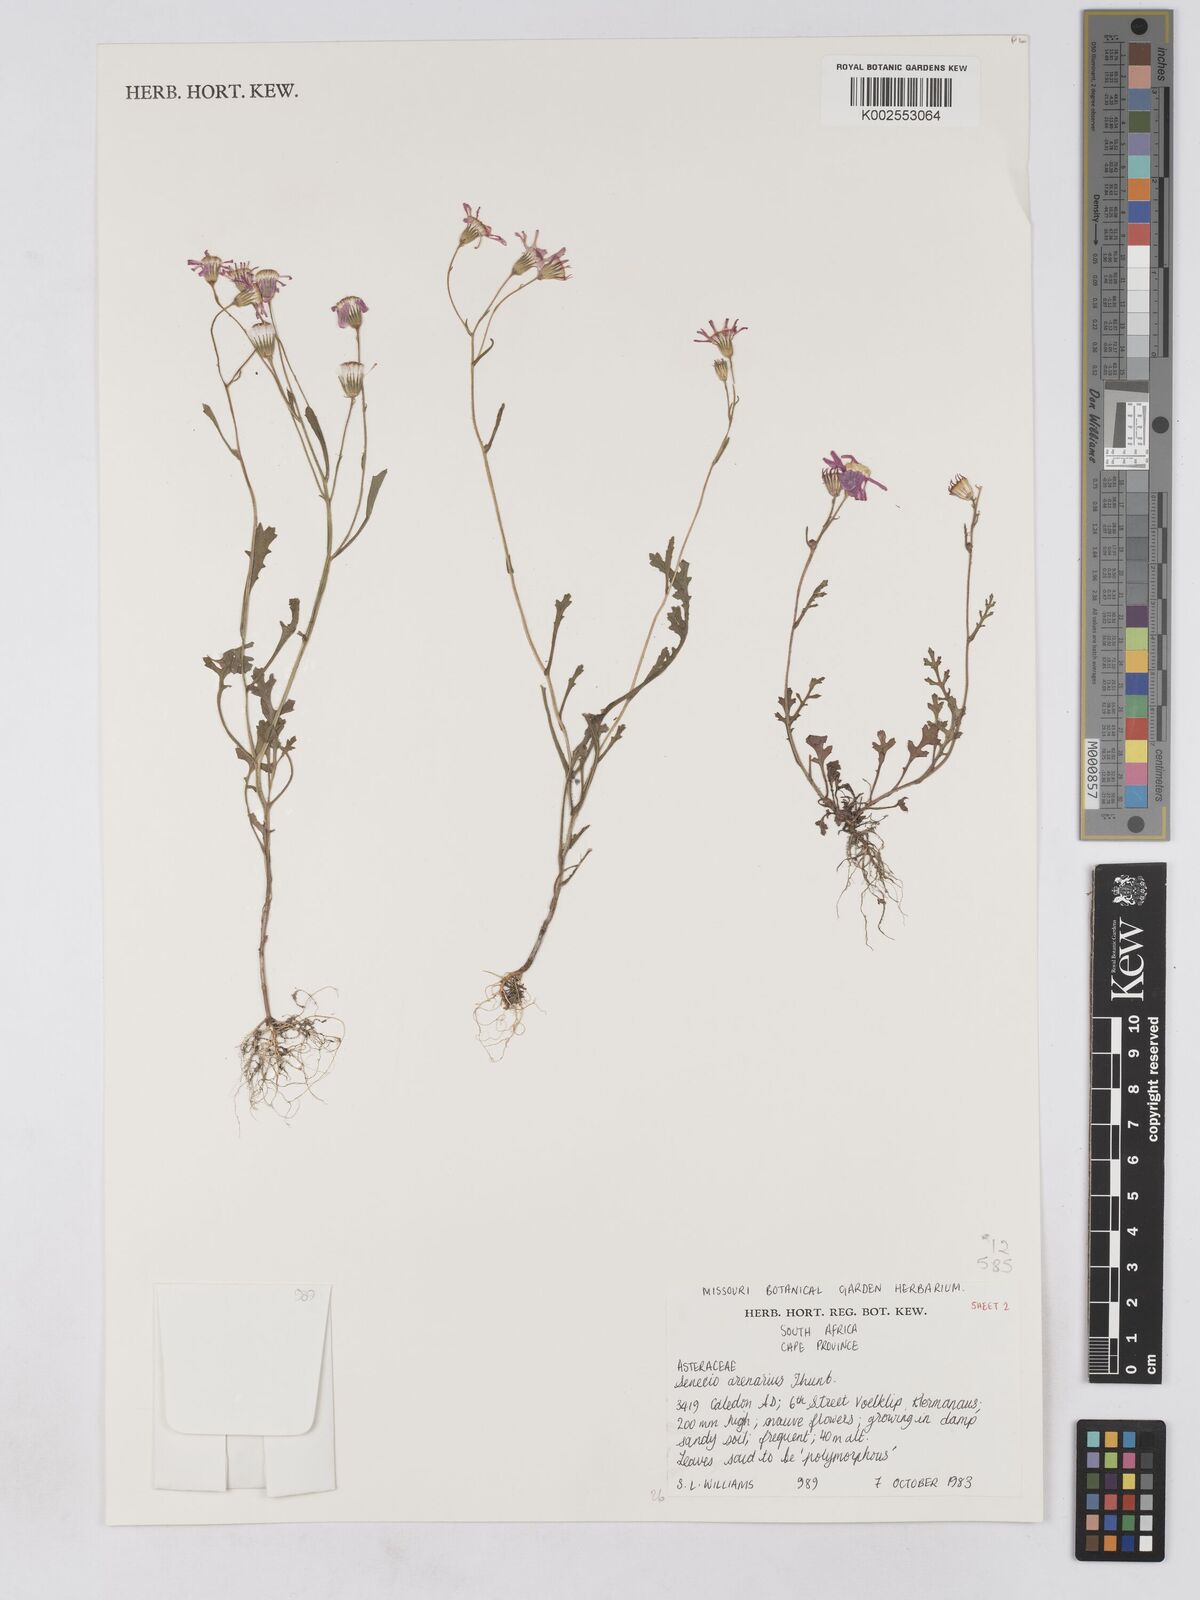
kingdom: Plantae
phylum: Tracheophyta
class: Magnoliopsida
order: Asterales
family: Asteraceae
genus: Senecio
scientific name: Senecio arenarius
